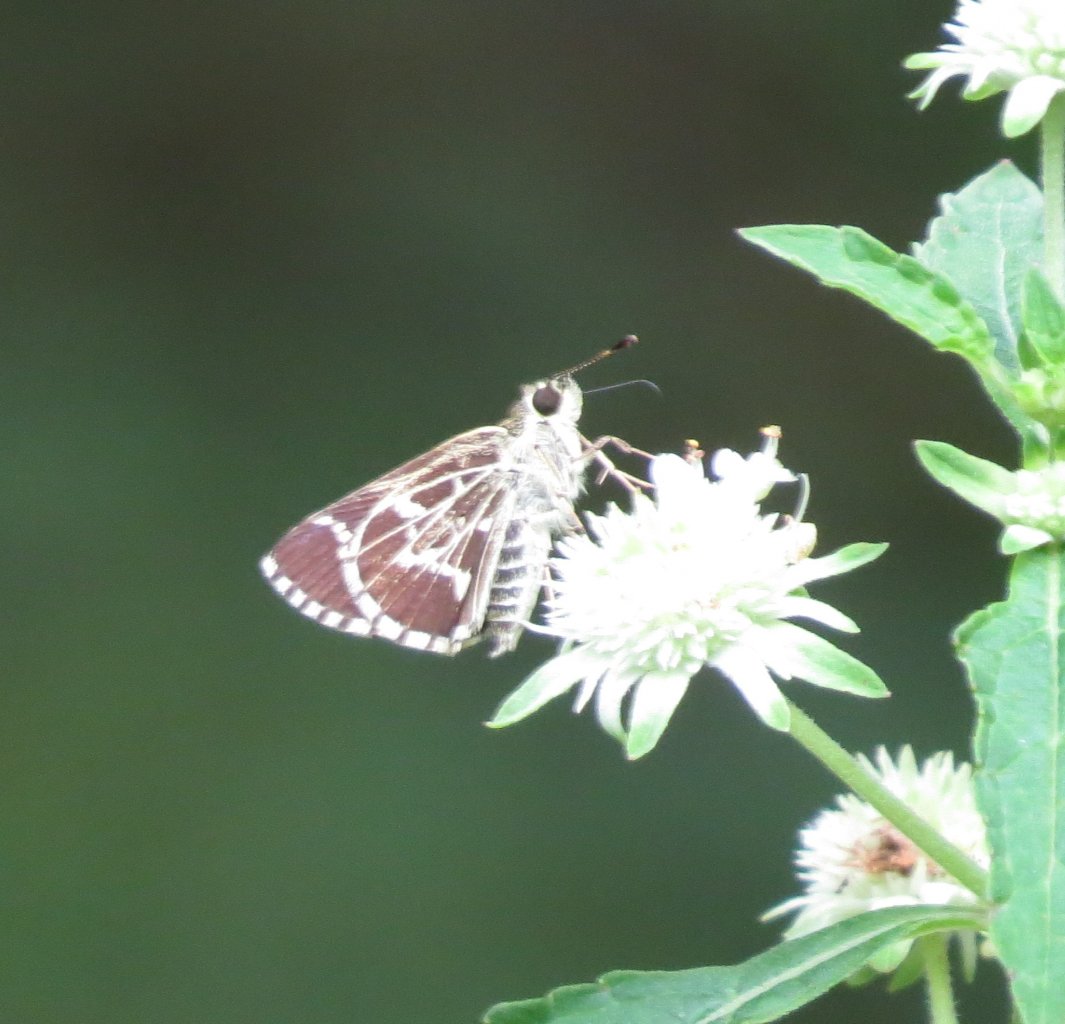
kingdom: Animalia
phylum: Arthropoda
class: Insecta
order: Lepidoptera
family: Hesperiidae
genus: Mastor
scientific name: Mastor aesculapius
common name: Lace-winged Roadside-Skipper
